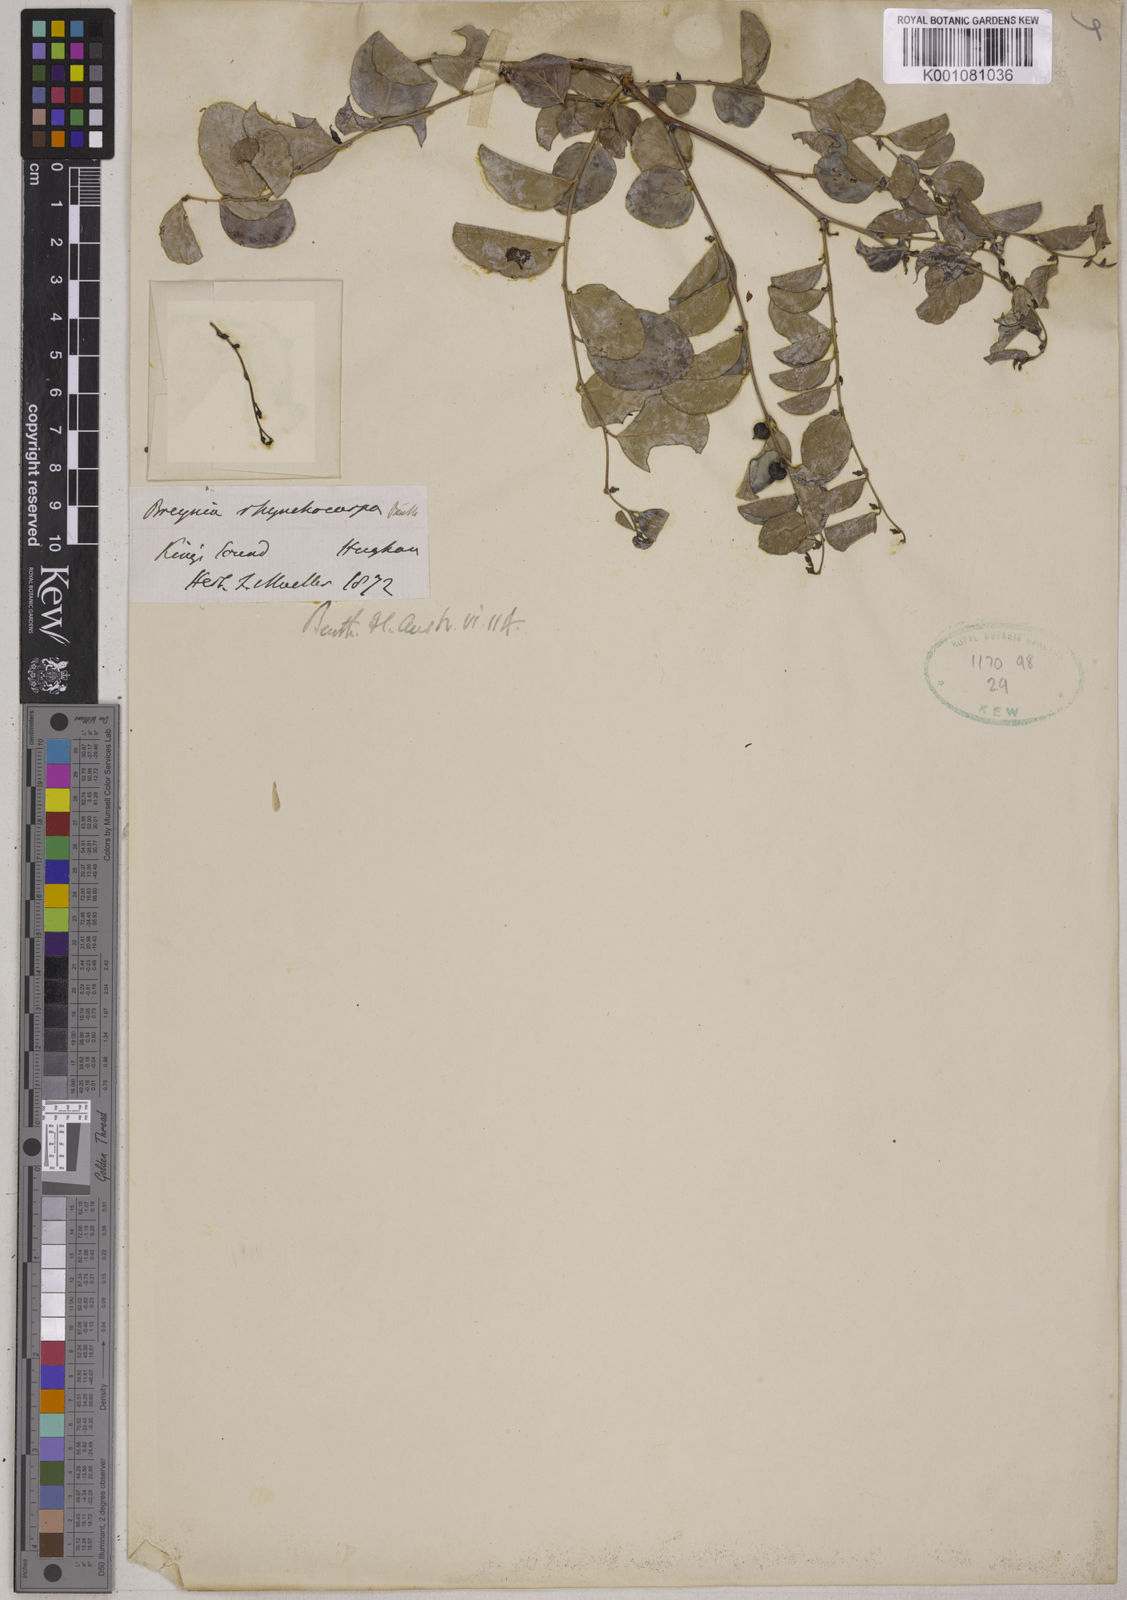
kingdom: Plantae
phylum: Tracheophyta
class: Magnoliopsida
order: Malpighiales
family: Phyllanthaceae
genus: Breynia
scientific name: Breynia rhynchocarpa
